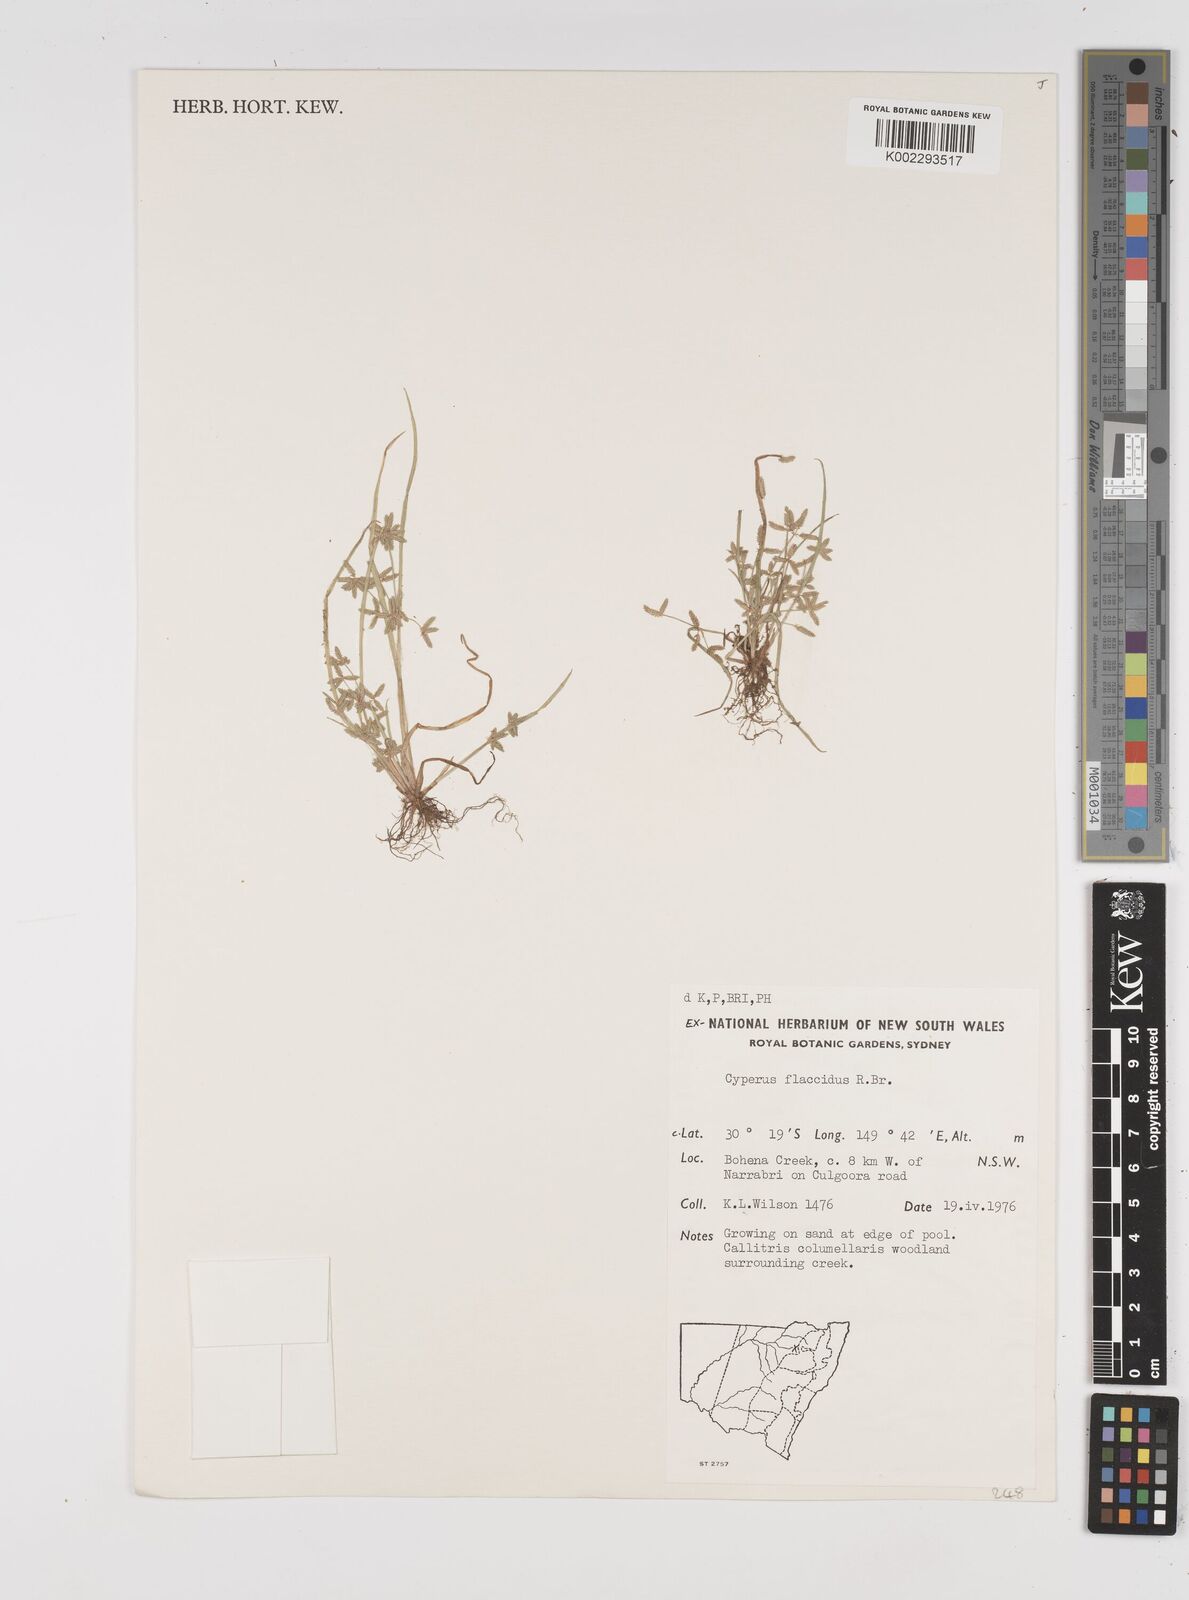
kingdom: Plantae
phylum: Tracheophyta
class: Liliopsida
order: Poales
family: Cyperaceae
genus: Cyperus
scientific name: Cyperus flaccidus
